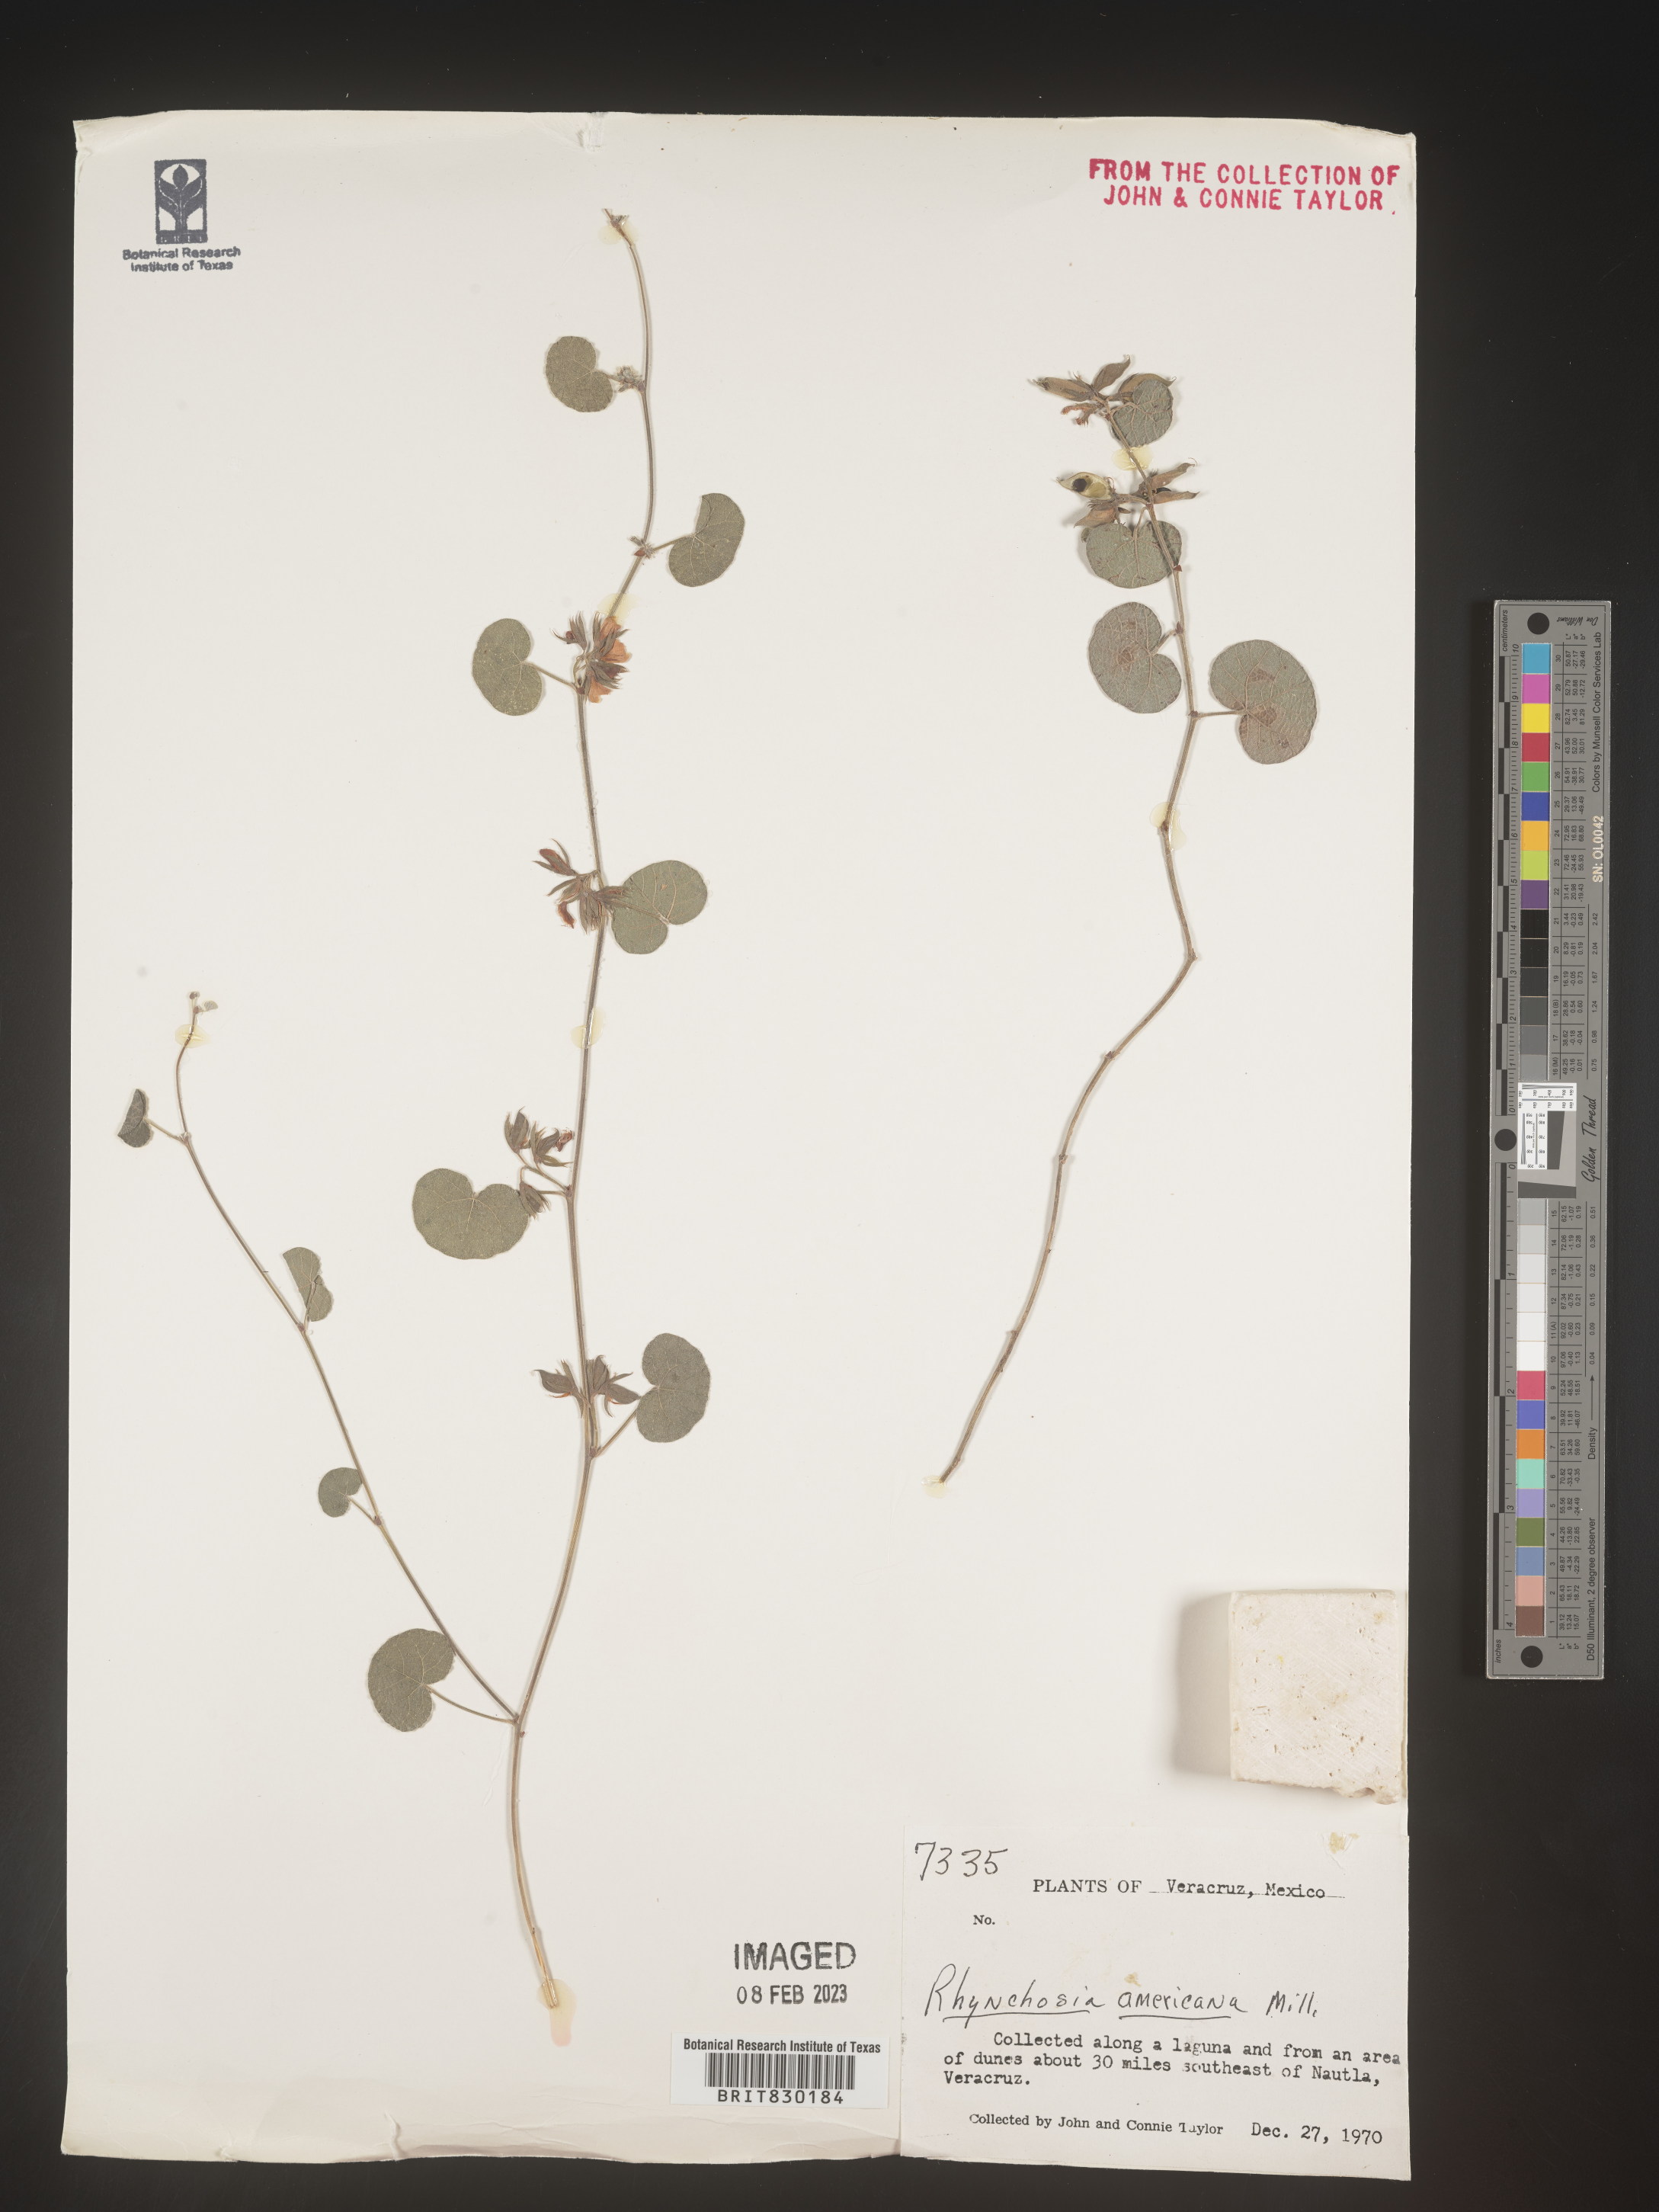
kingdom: Plantae
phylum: Tracheophyta
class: Magnoliopsida
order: Fabales
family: Fabaceae
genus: Rhynchosia
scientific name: Rhynchosia
